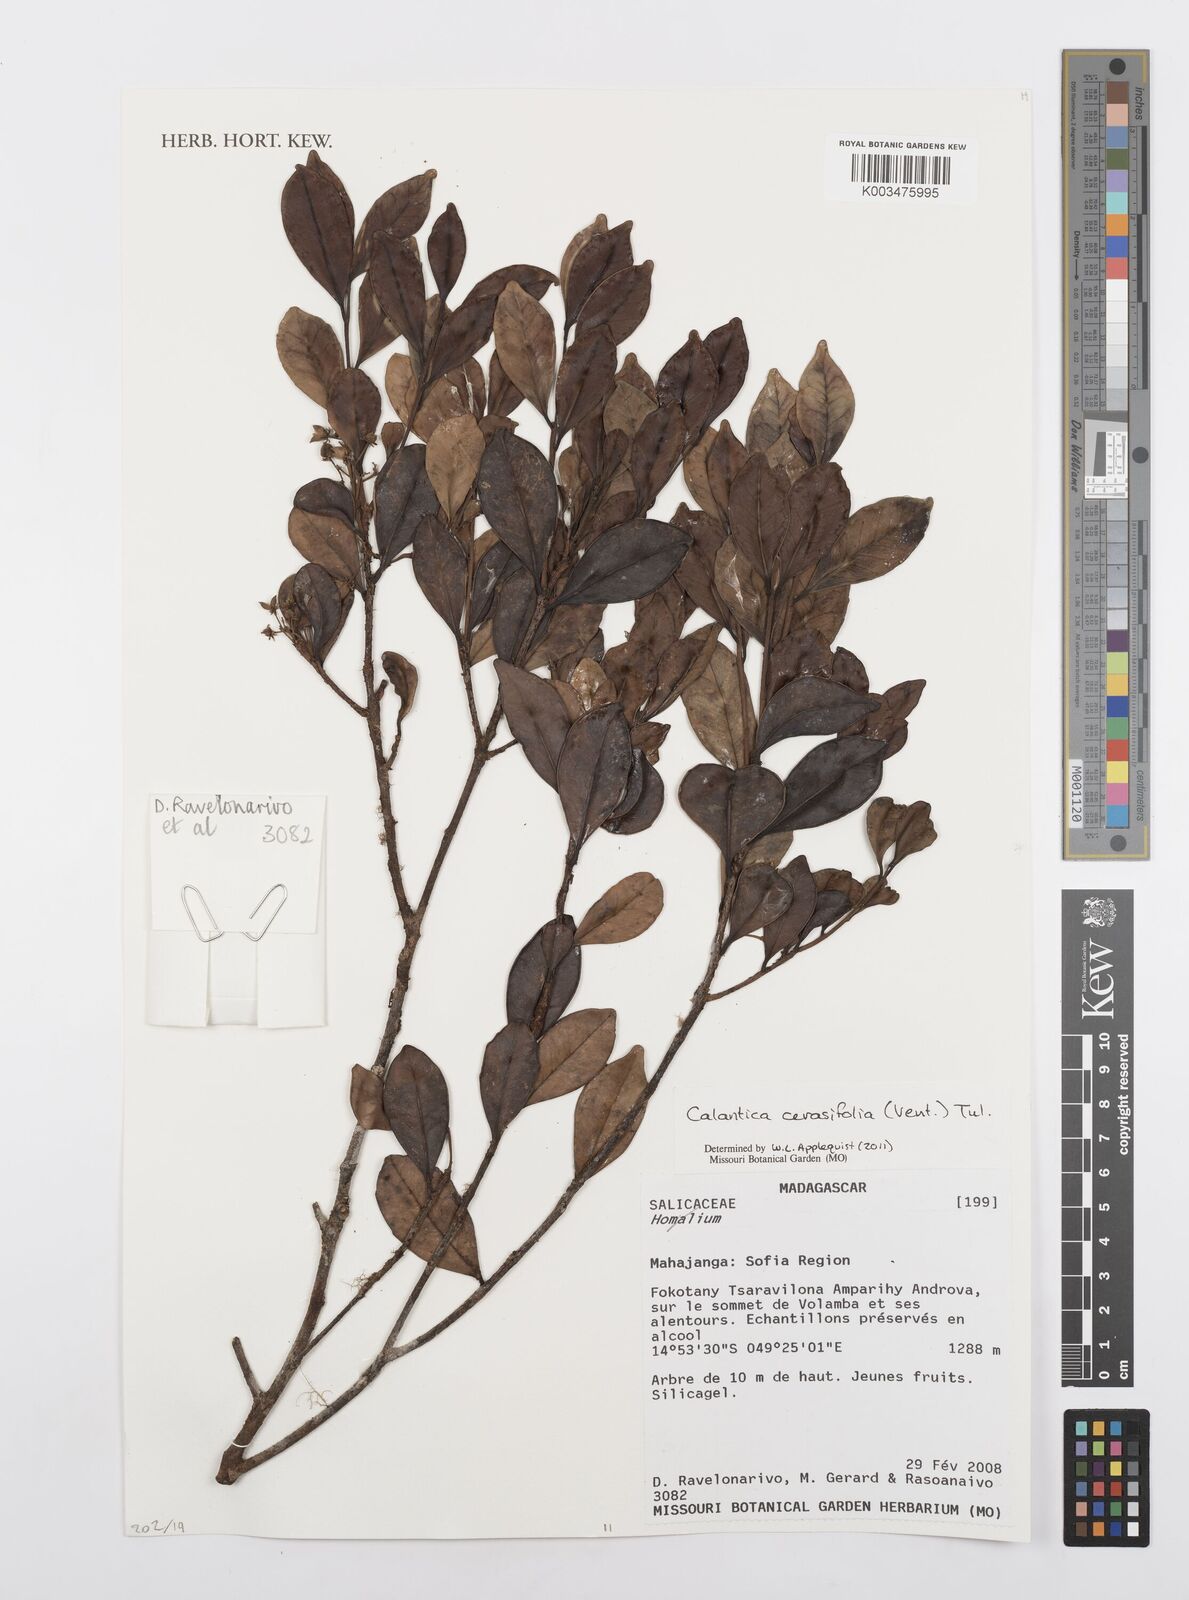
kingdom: Plantae
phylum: Tracheophyta
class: Magnoliopsida
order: Malpighiales
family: Salicaceae
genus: Calantica
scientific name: Calantica cerasifolia
